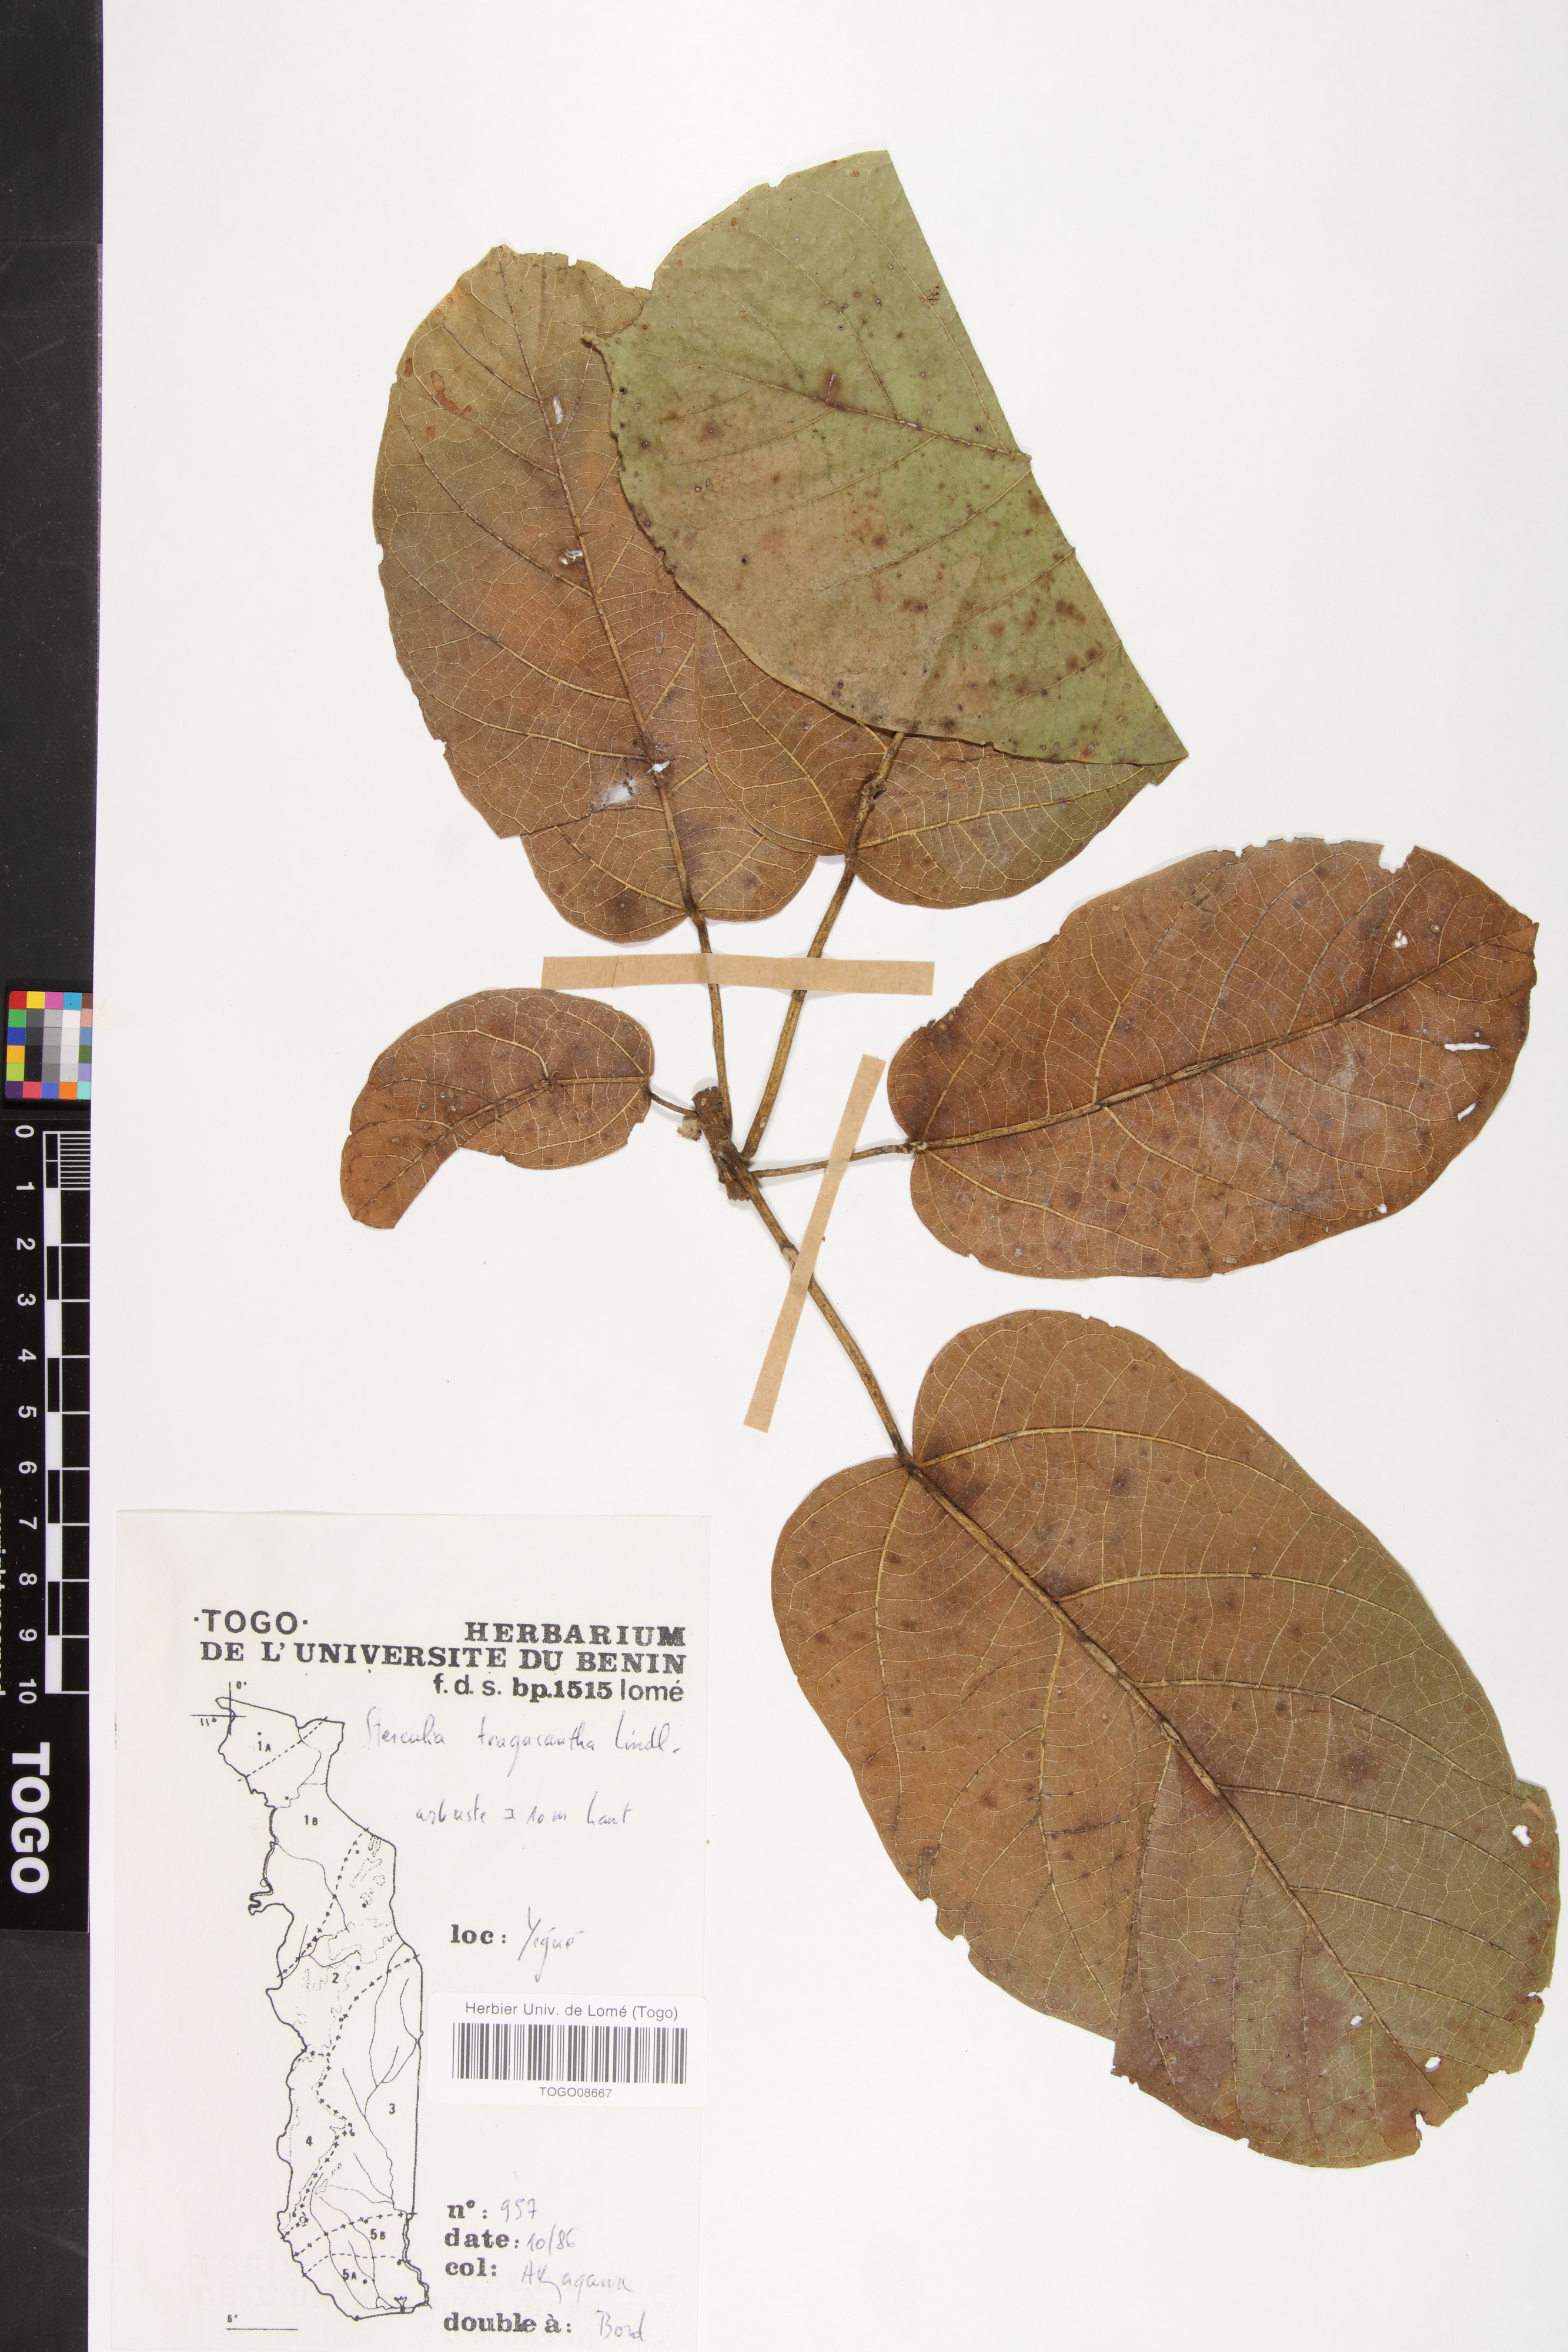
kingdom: Plantae
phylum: Tracheophyta
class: Magnoliopsida
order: Malvales
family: Malvaceae
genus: Sterculia
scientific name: Sterculia tragacantha
